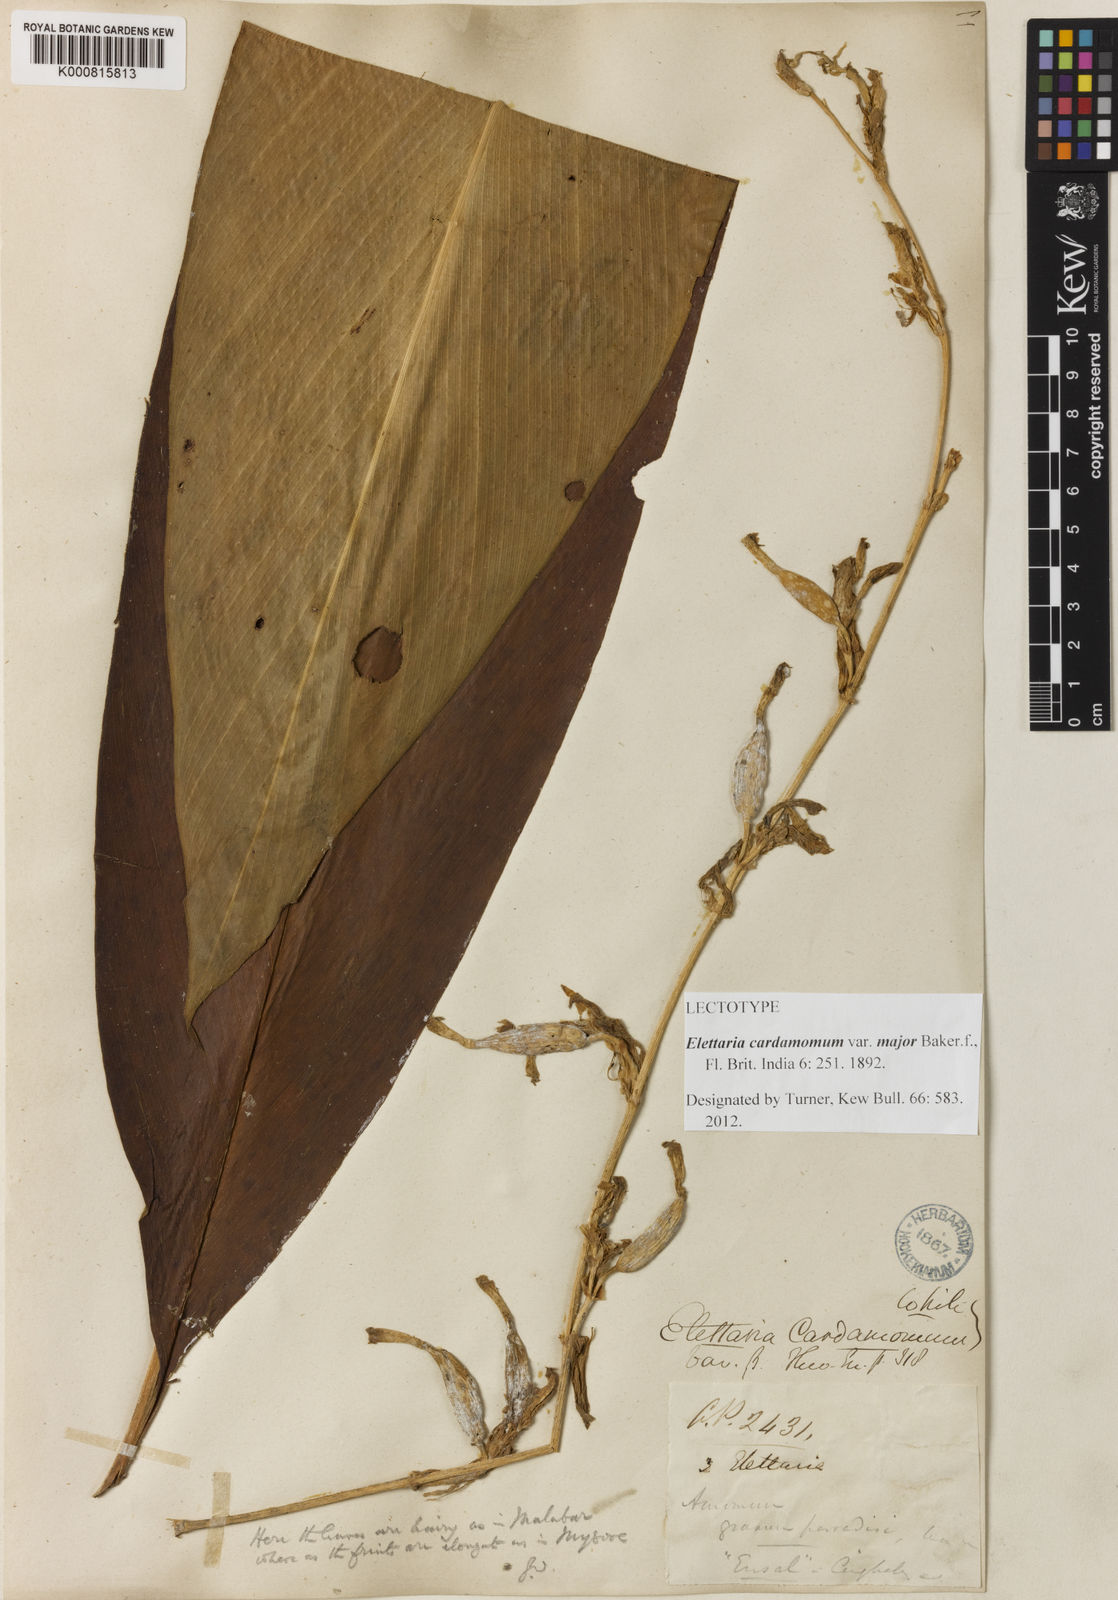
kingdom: Plantae
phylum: Tracheophyta
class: Liliopsida
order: Zingiberales
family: Zingiberaceae
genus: Elettaria
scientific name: Elettaria cardamomum
